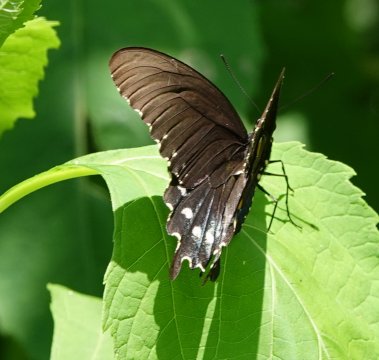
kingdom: Animalia
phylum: Arthropoda
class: Insecta
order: Lepidoptera
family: Papilionidae
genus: Battus
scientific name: Battus philenor
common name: Pipevine Swallowtail
